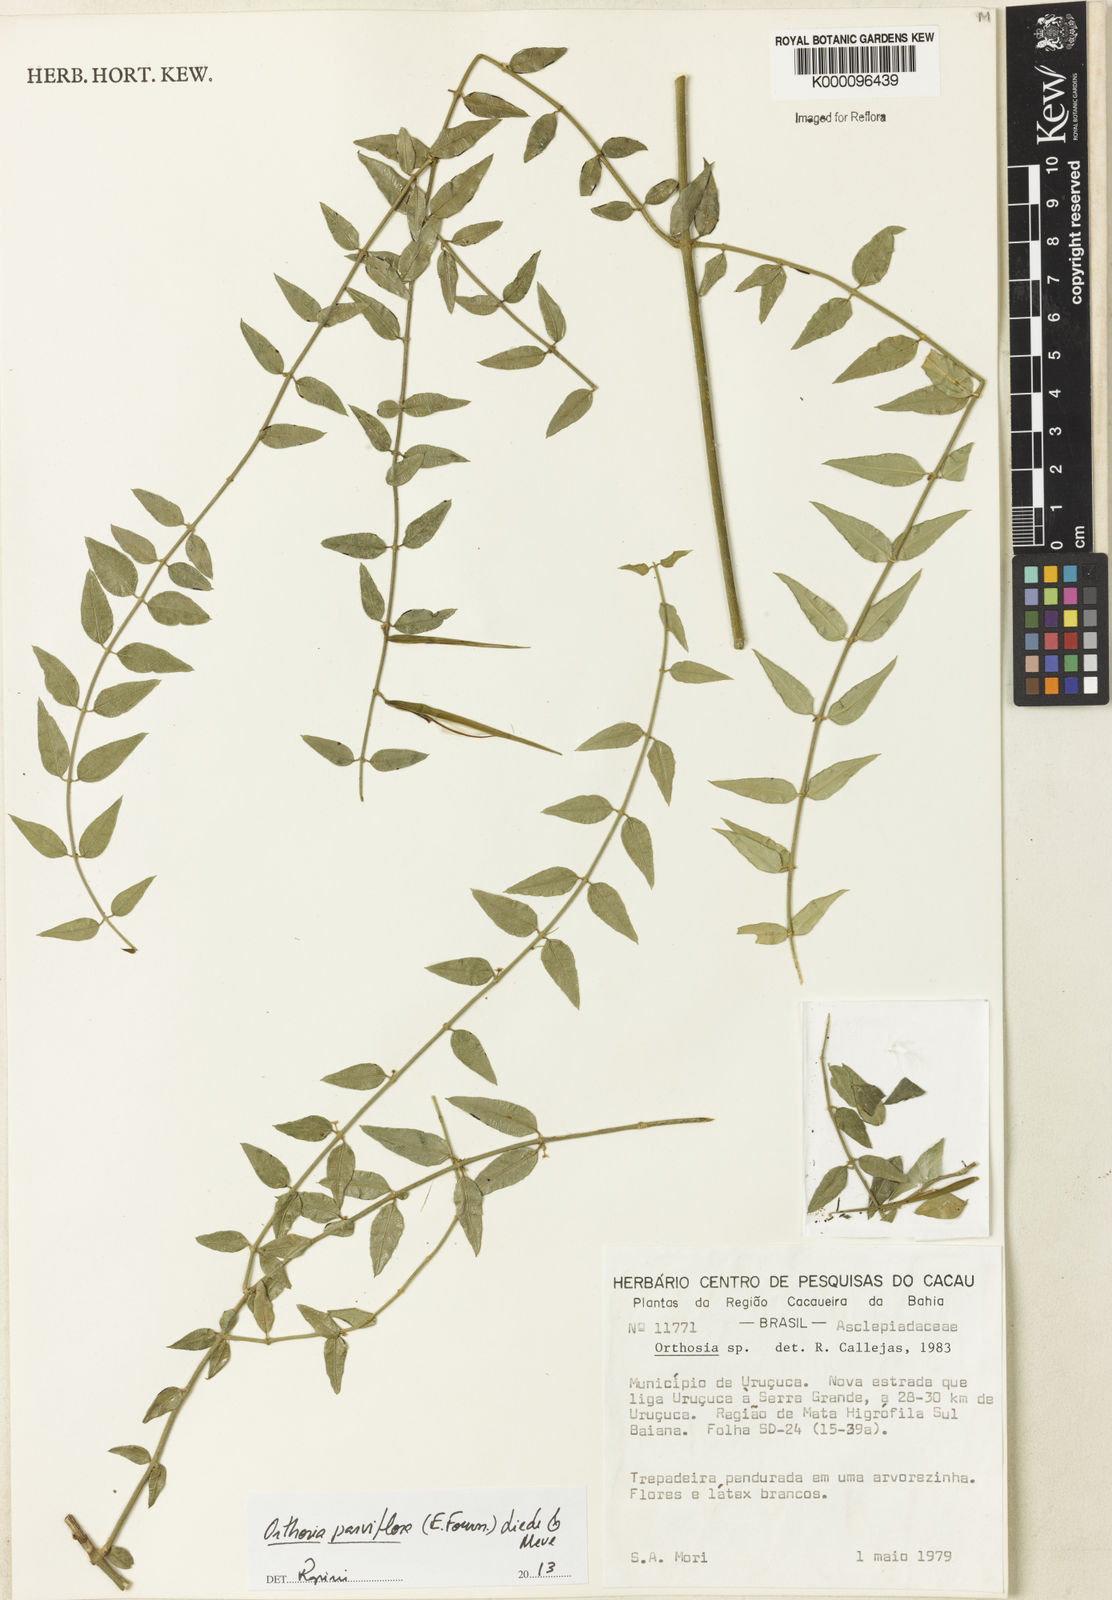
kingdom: Plantae
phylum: Tracheophyta
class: Magnoliopsida
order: Gentianales
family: Apocynaceae
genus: Orthosia
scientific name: Orthosia parviflora
